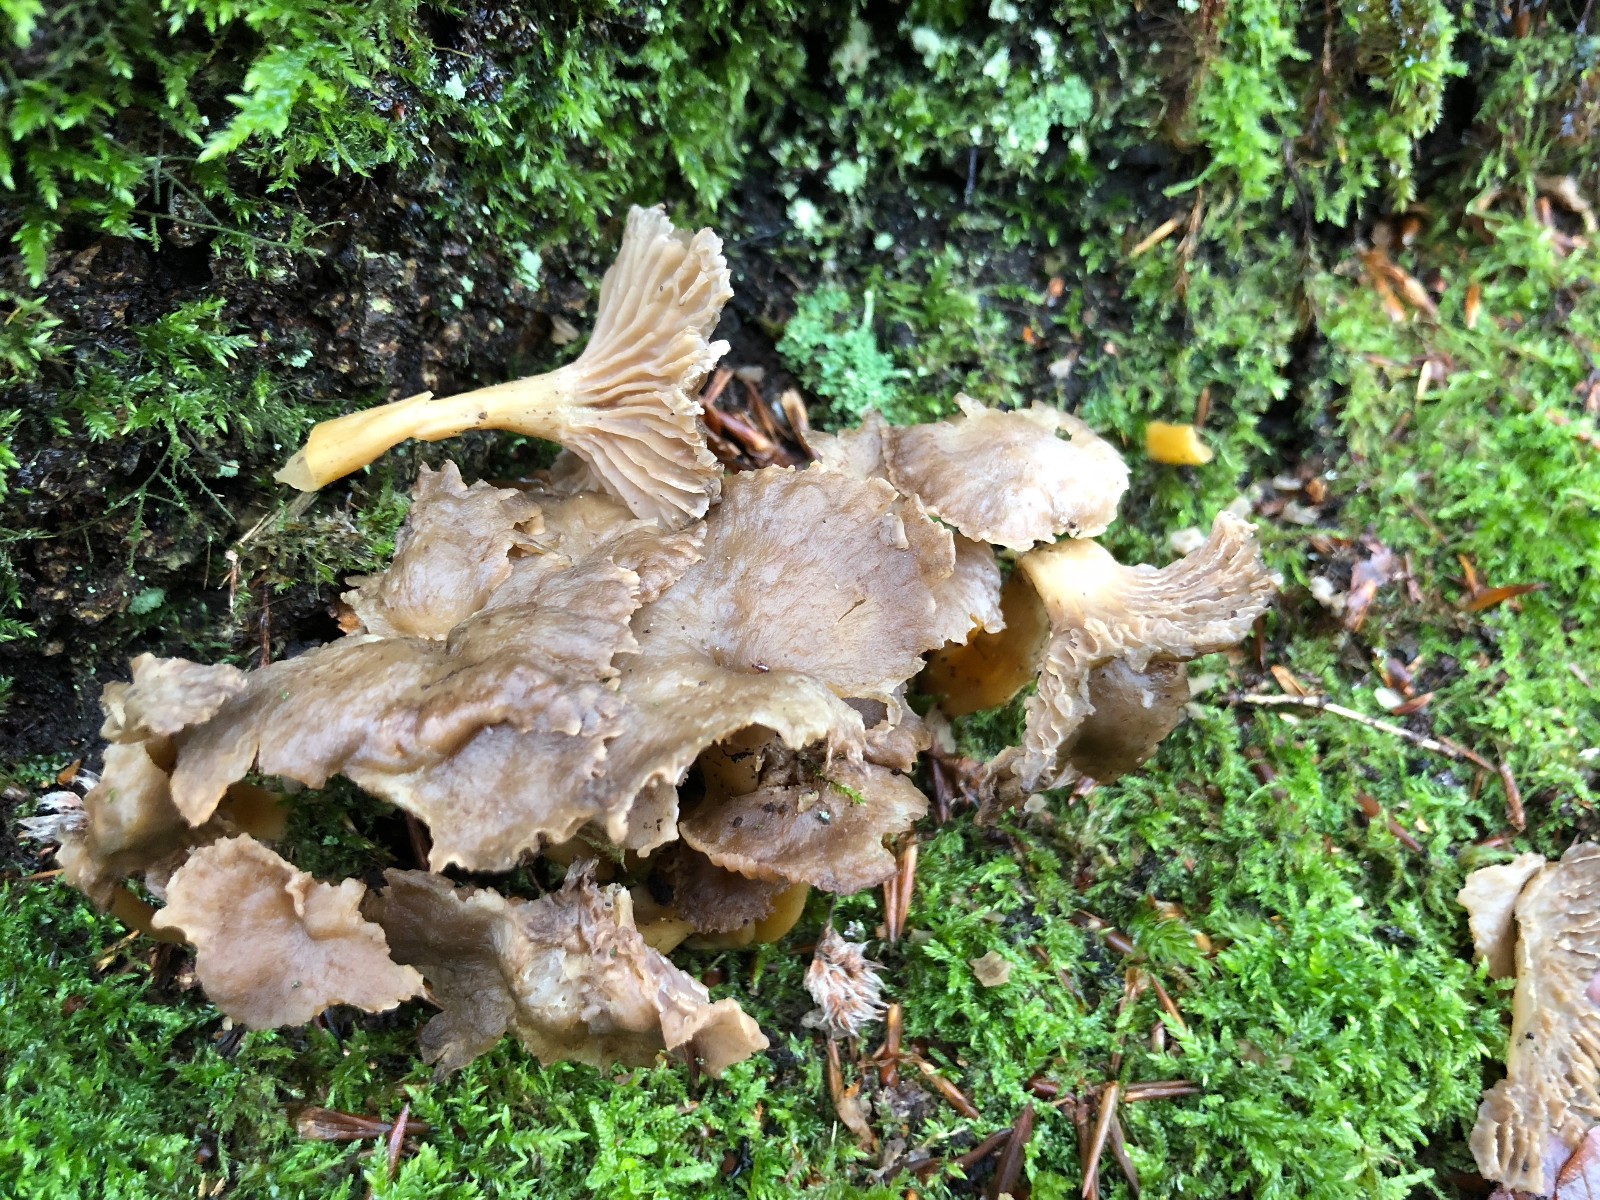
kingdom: Fungi
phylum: Basidiomycota
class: Agaricomycetes
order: Cantharellales
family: Hydnaceae
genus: Craterellus
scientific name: Craterellus tubaeformis
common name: tragt-kantarel
